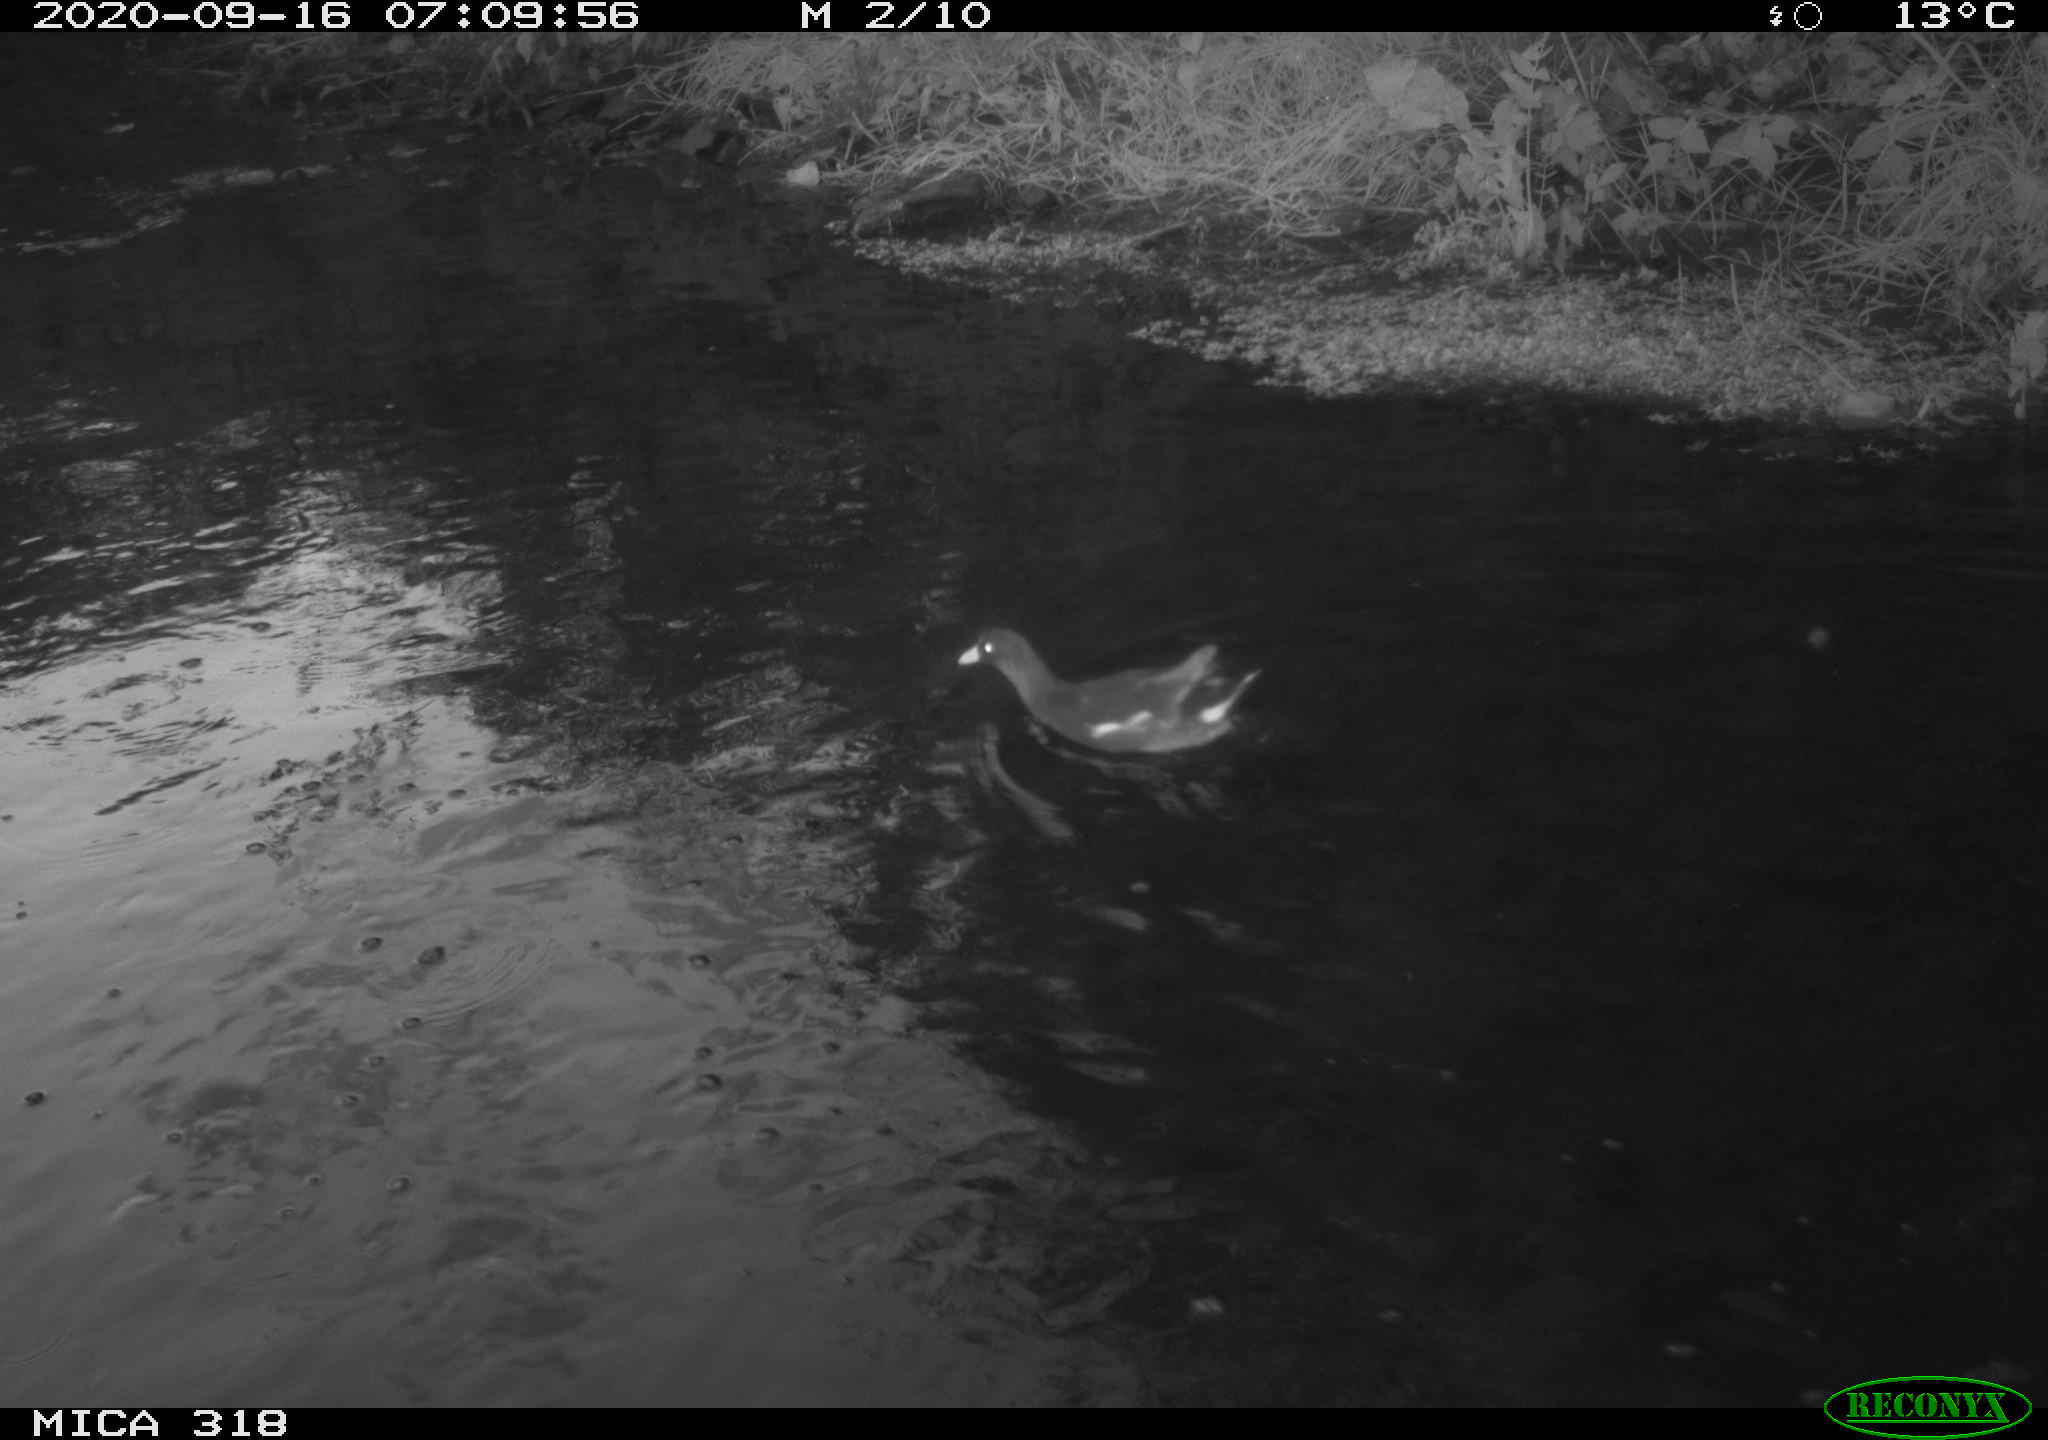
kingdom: Animalia
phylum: Chordata
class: Aves
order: Gruiformes
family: Rallidae
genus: Gallinula
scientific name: Gallinula chloropus
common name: Common moorhen
